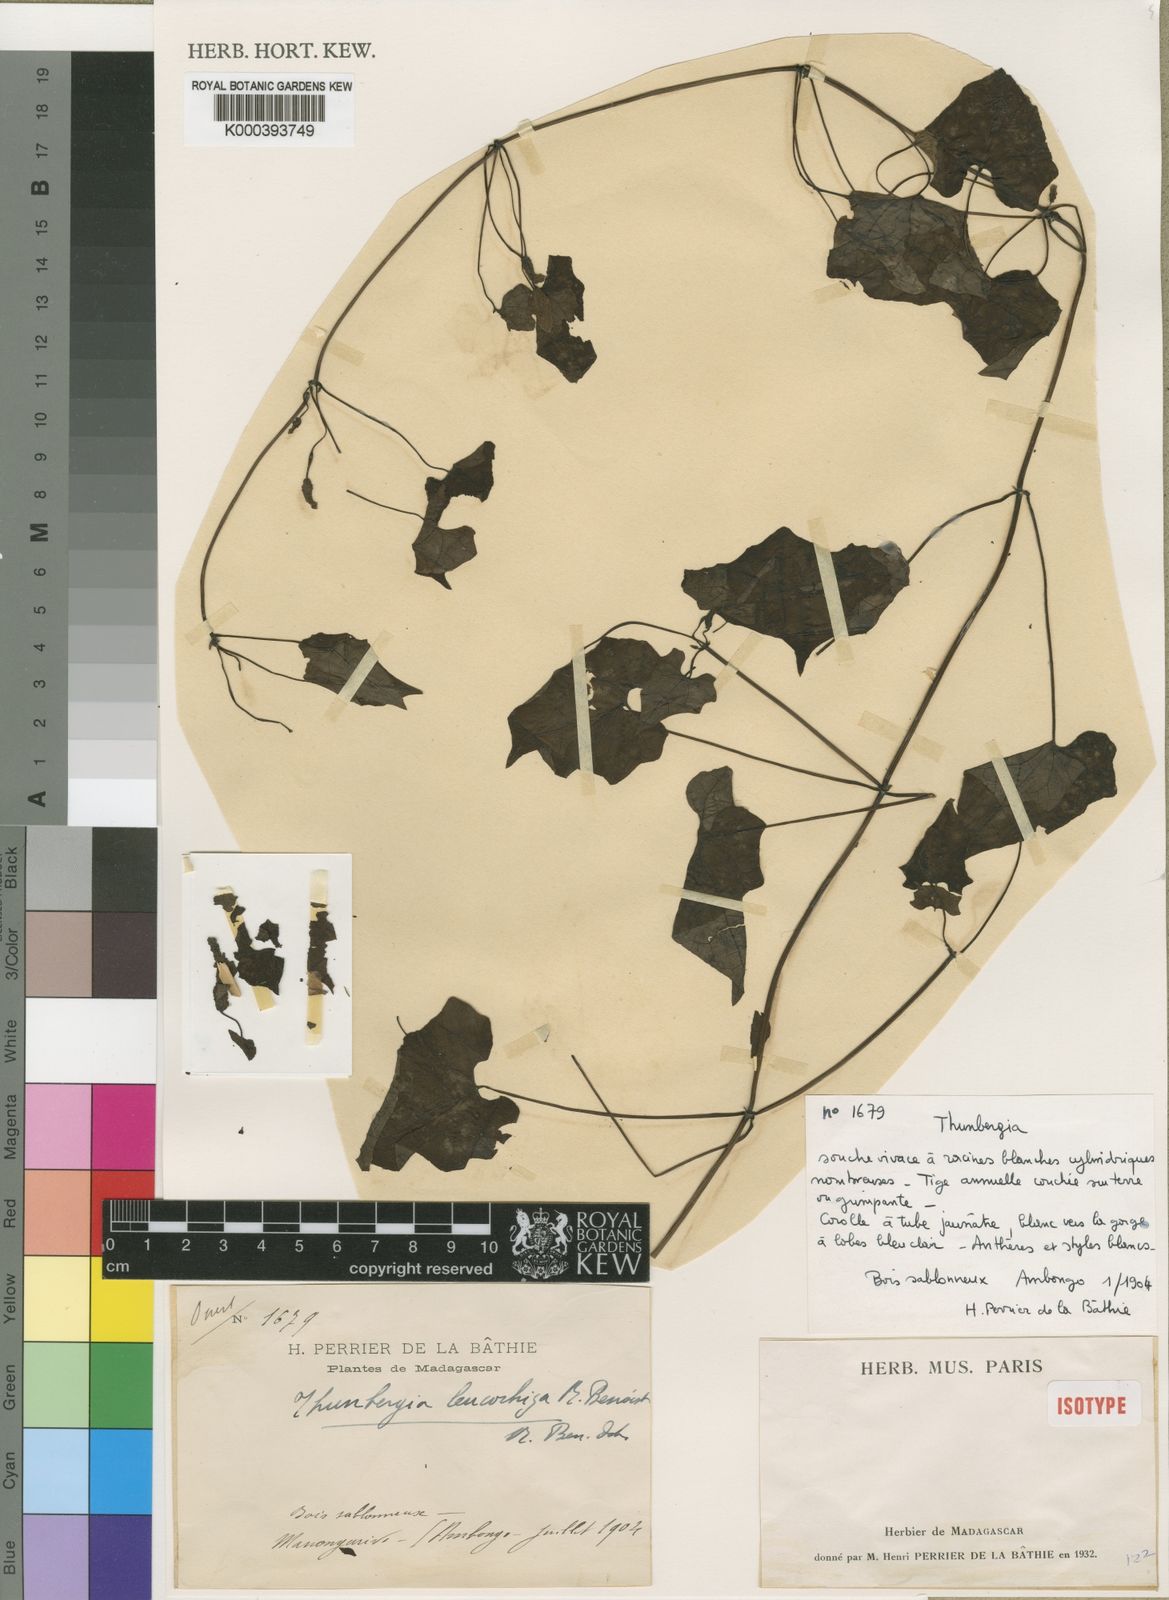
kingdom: Plantae
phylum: Tracheophyta
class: Magnoliopsida
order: Lamiales
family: Acanthaceae
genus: Thunbergia
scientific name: Thunbergia leucorhiza
